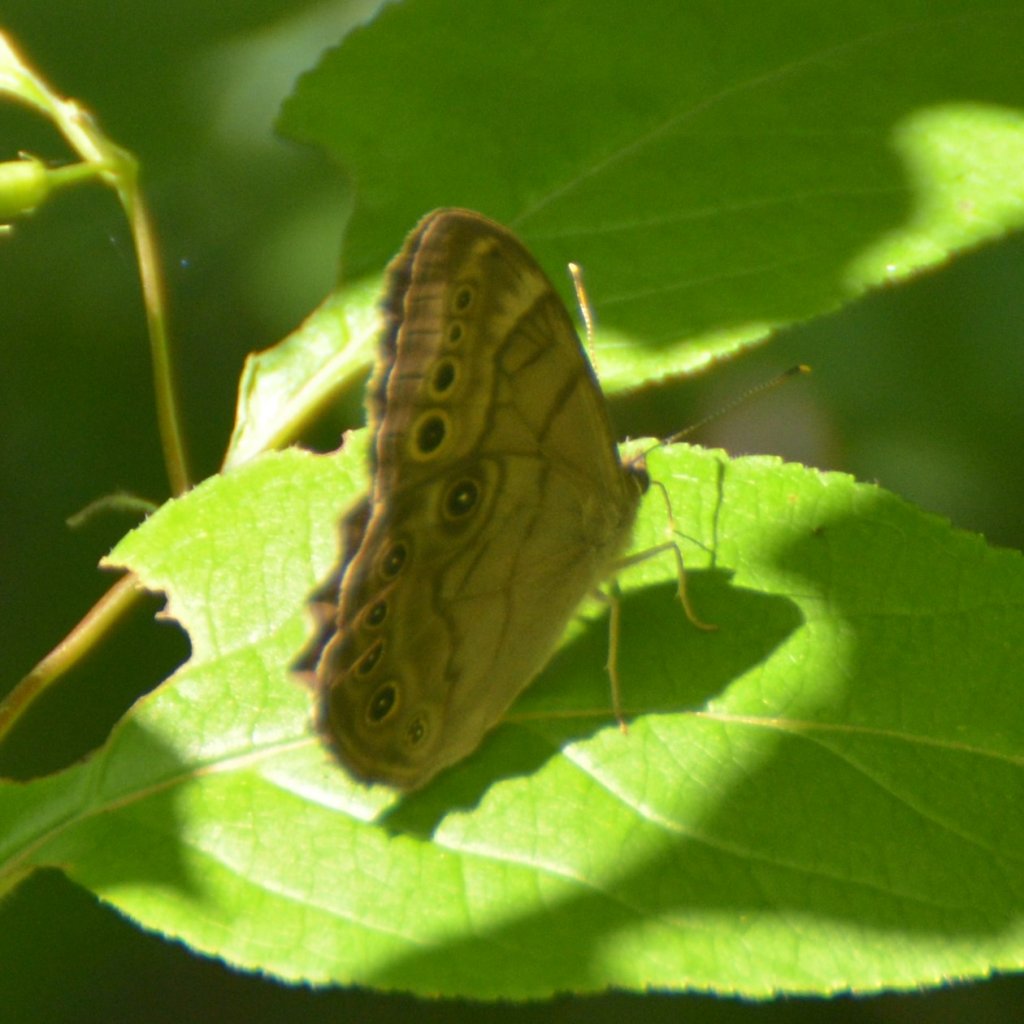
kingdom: Animalia
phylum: Arthropoda
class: Insecta
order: Lepidoptera
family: Nymphalidae
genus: Lethe
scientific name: Lethe anthedon
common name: Northern Pearly-Eye
